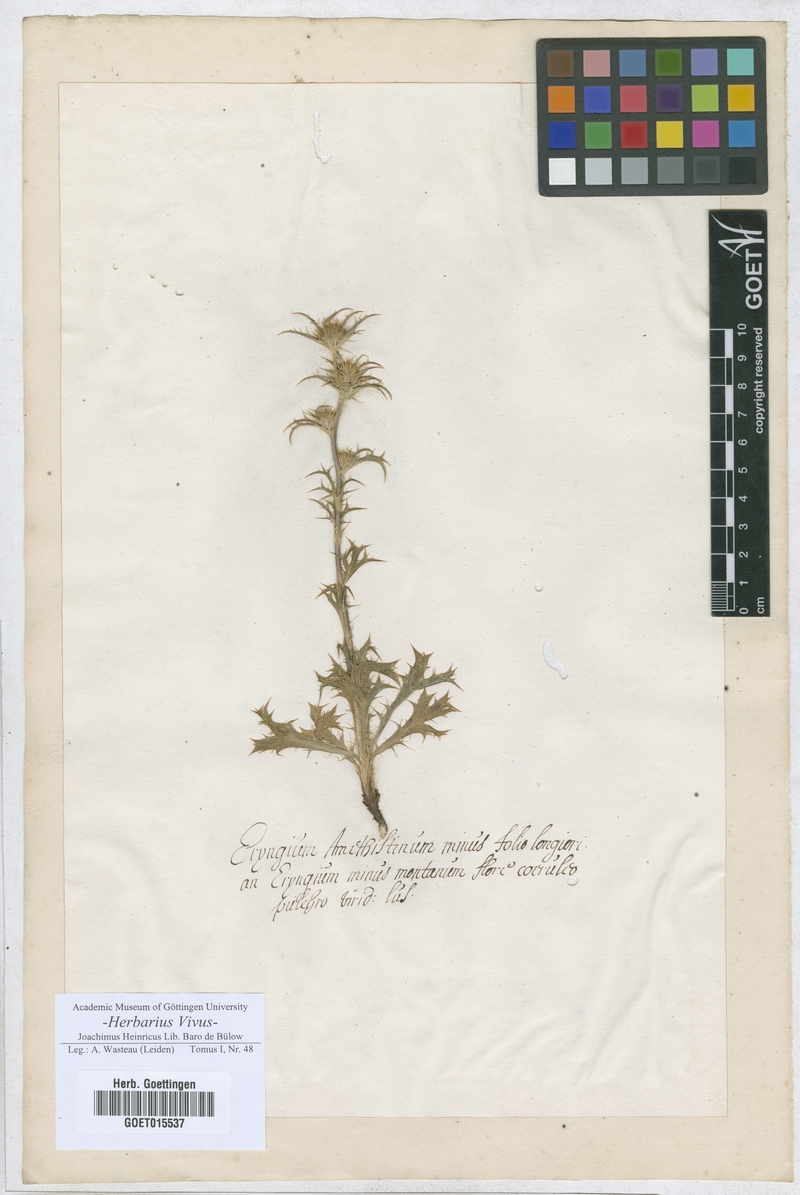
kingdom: Plantae
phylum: Tracheophyta
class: Magnoliopsida
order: Apiales
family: Apiaceae
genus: Eryngium
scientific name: Eryngium amethystinum
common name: Amethyst eryngo
